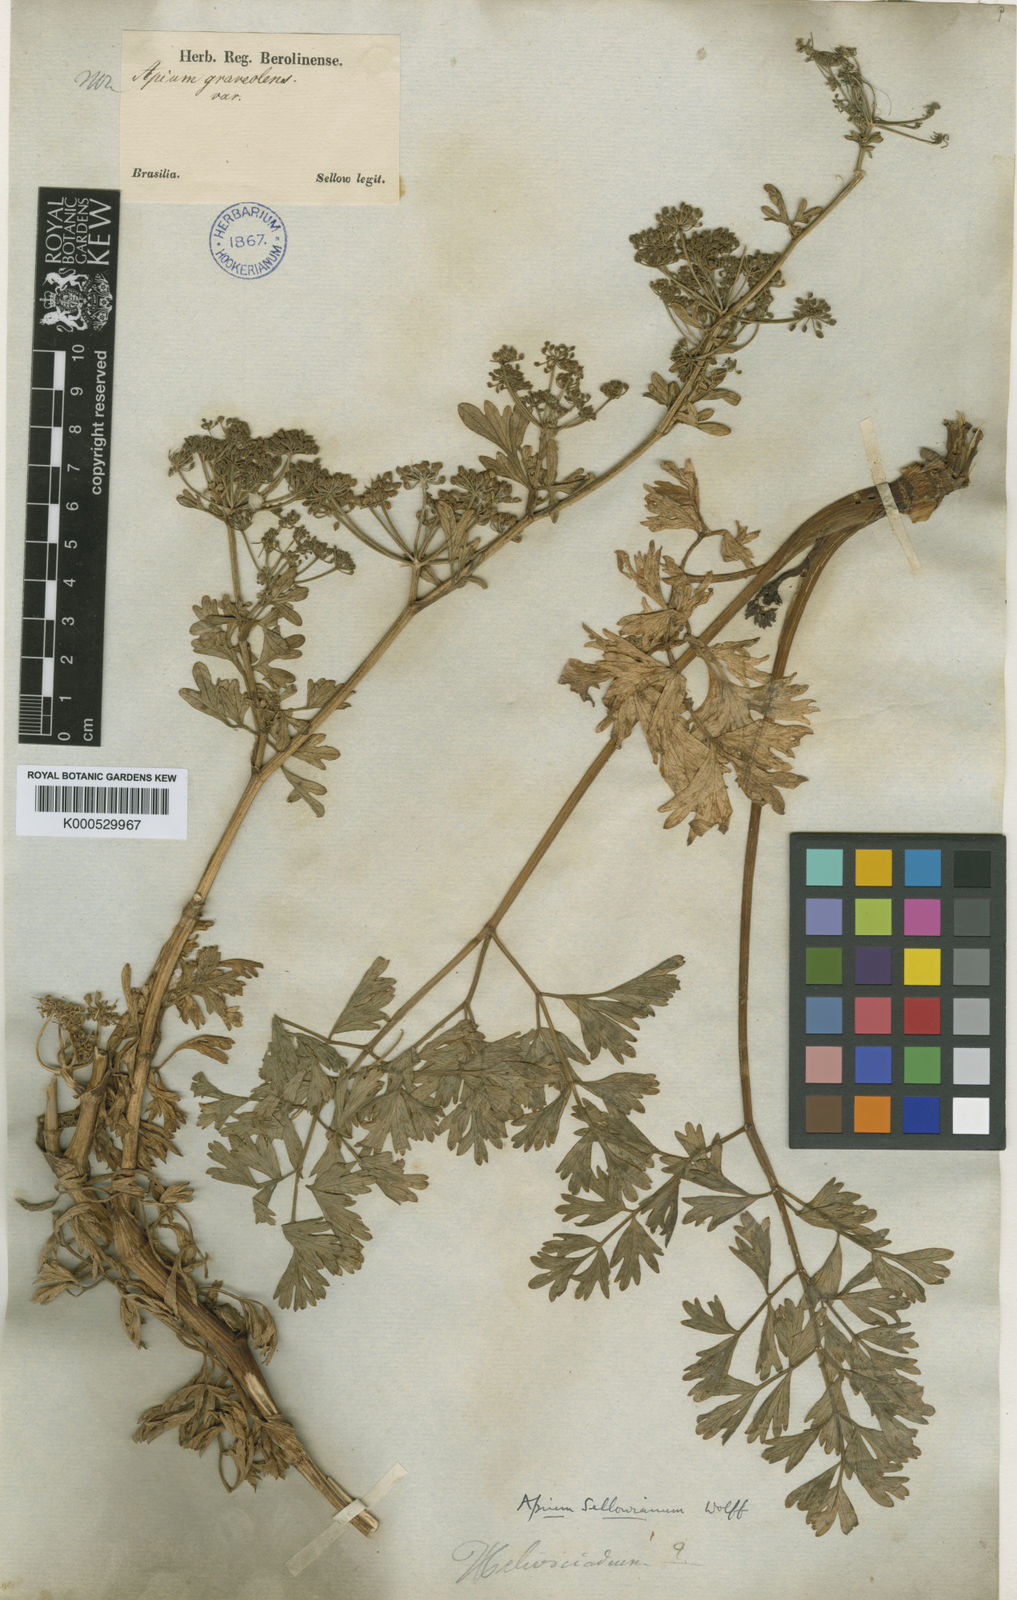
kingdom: Plantae
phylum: Tracheophyta
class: Magnoliopsida
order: Apiales
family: Apiaceae
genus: Apium
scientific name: Apium sellowianum
